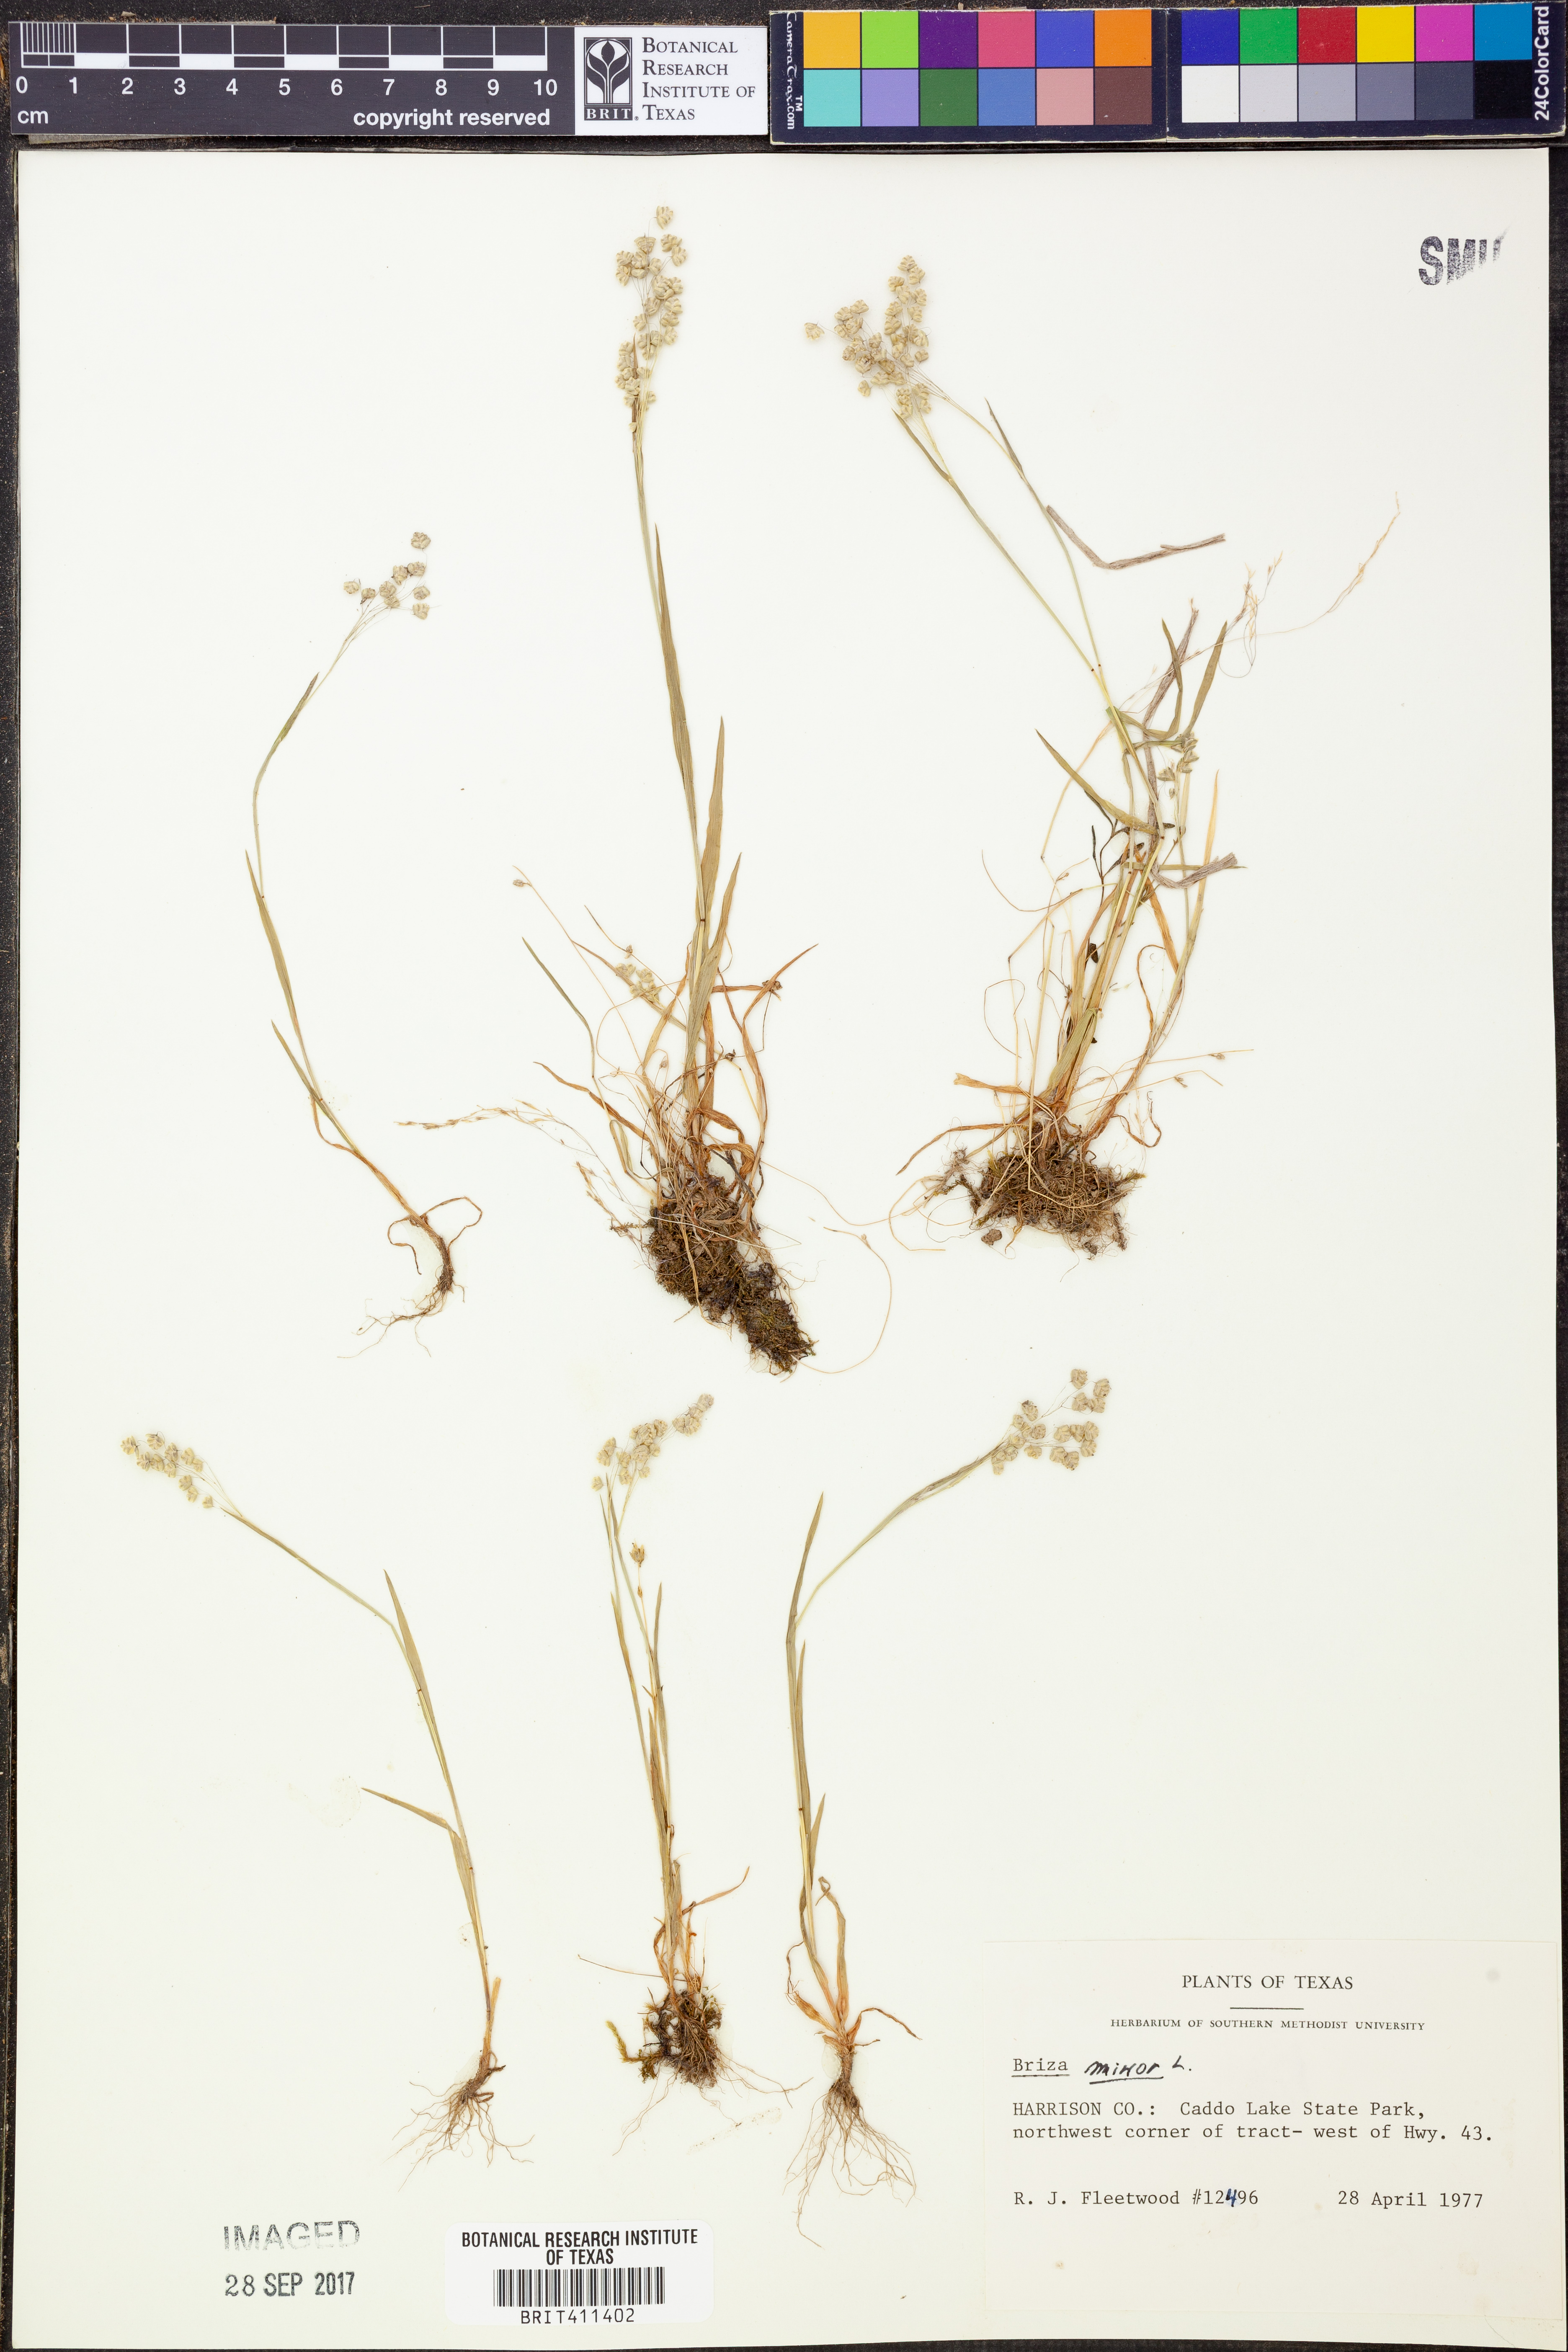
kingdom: Plantae
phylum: Tracheophyta
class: Liliopsida
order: Poales
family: Poaceae
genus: Briza
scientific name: Briza minor
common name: Lesser quaking-grass
